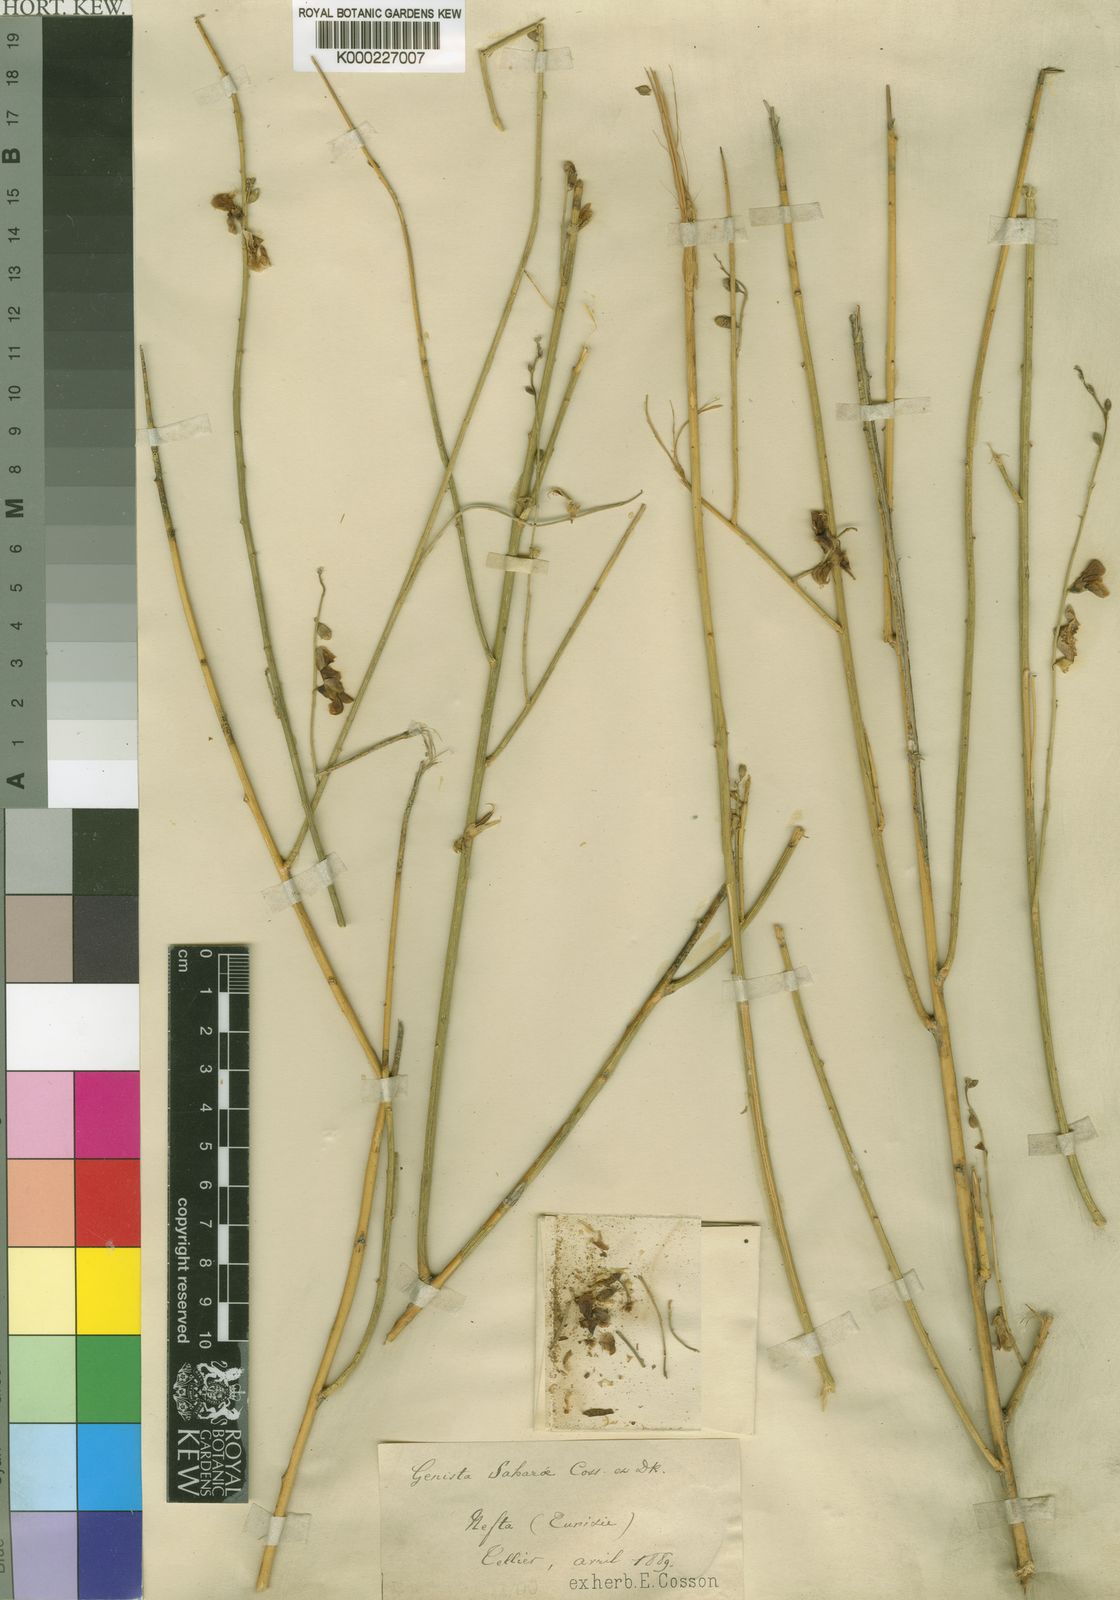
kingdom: Plantae
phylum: Tracheophyta
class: Magnoliopsida
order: Fabales
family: Fabaceae
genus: Calobota
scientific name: Calobota saharae
